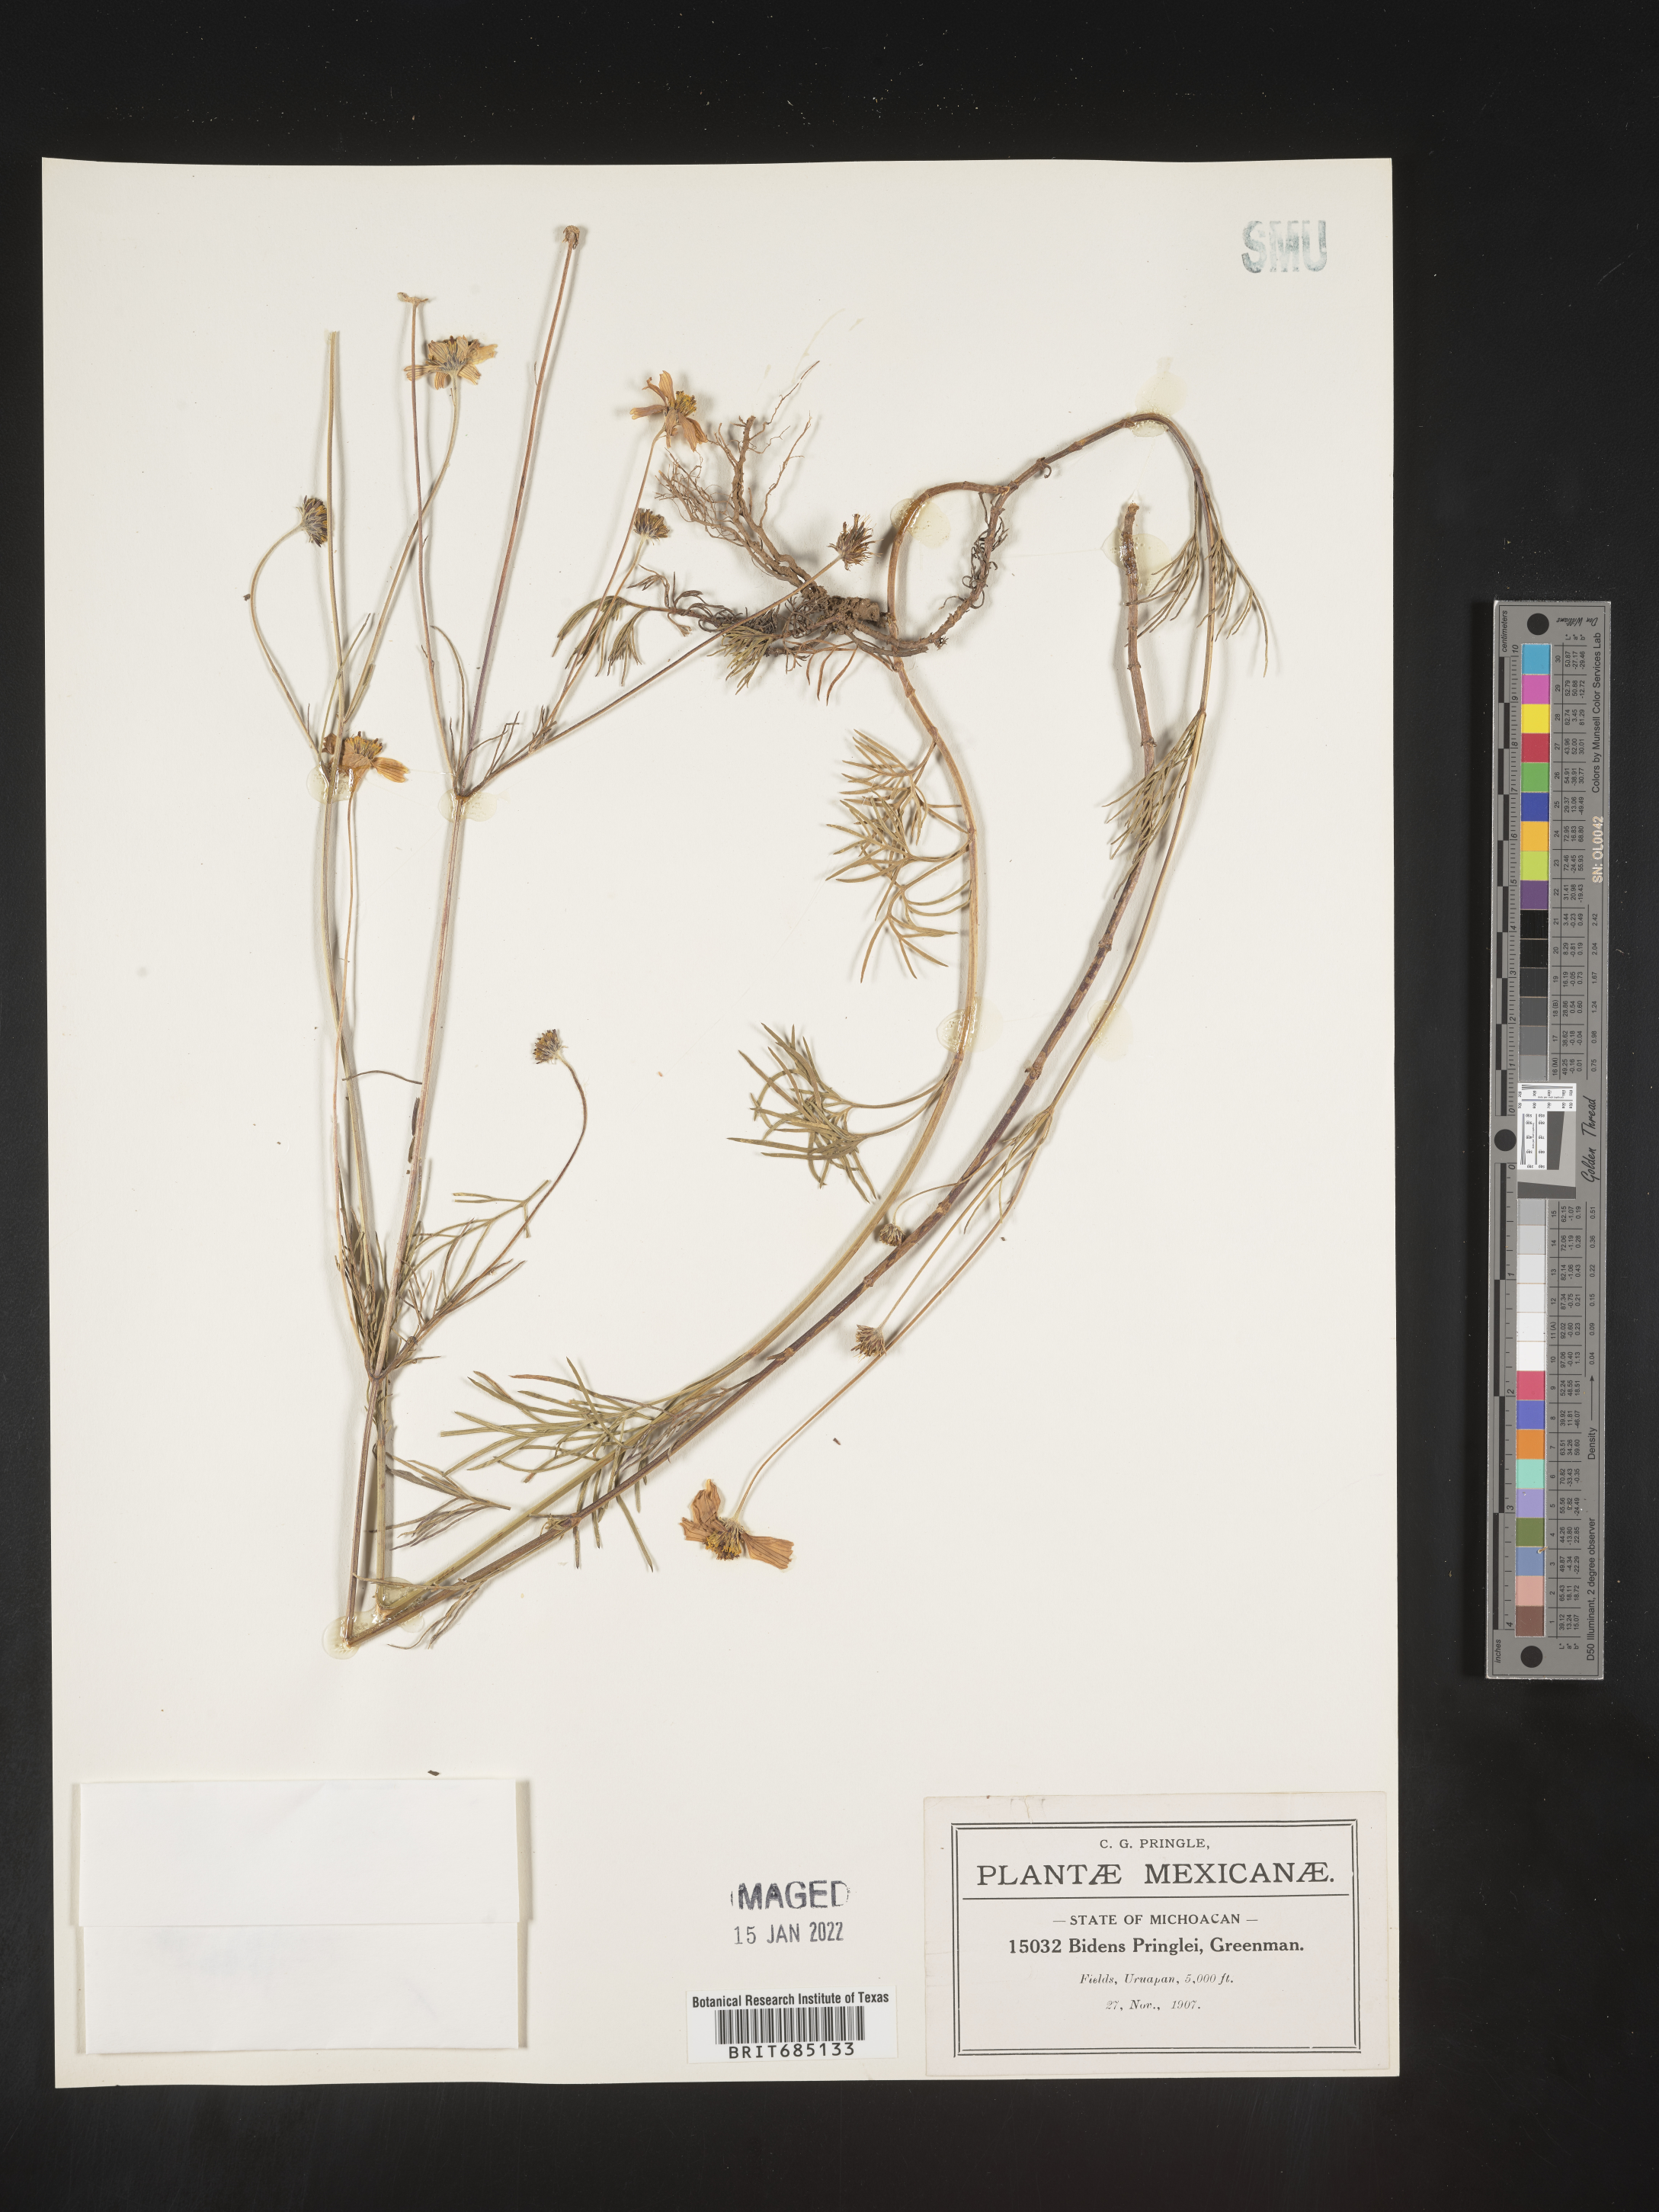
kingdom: Plantae
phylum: Tracheophyta
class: Magnoliopsida
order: Asterales
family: Asteraceae
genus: Bidens
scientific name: Bidens
